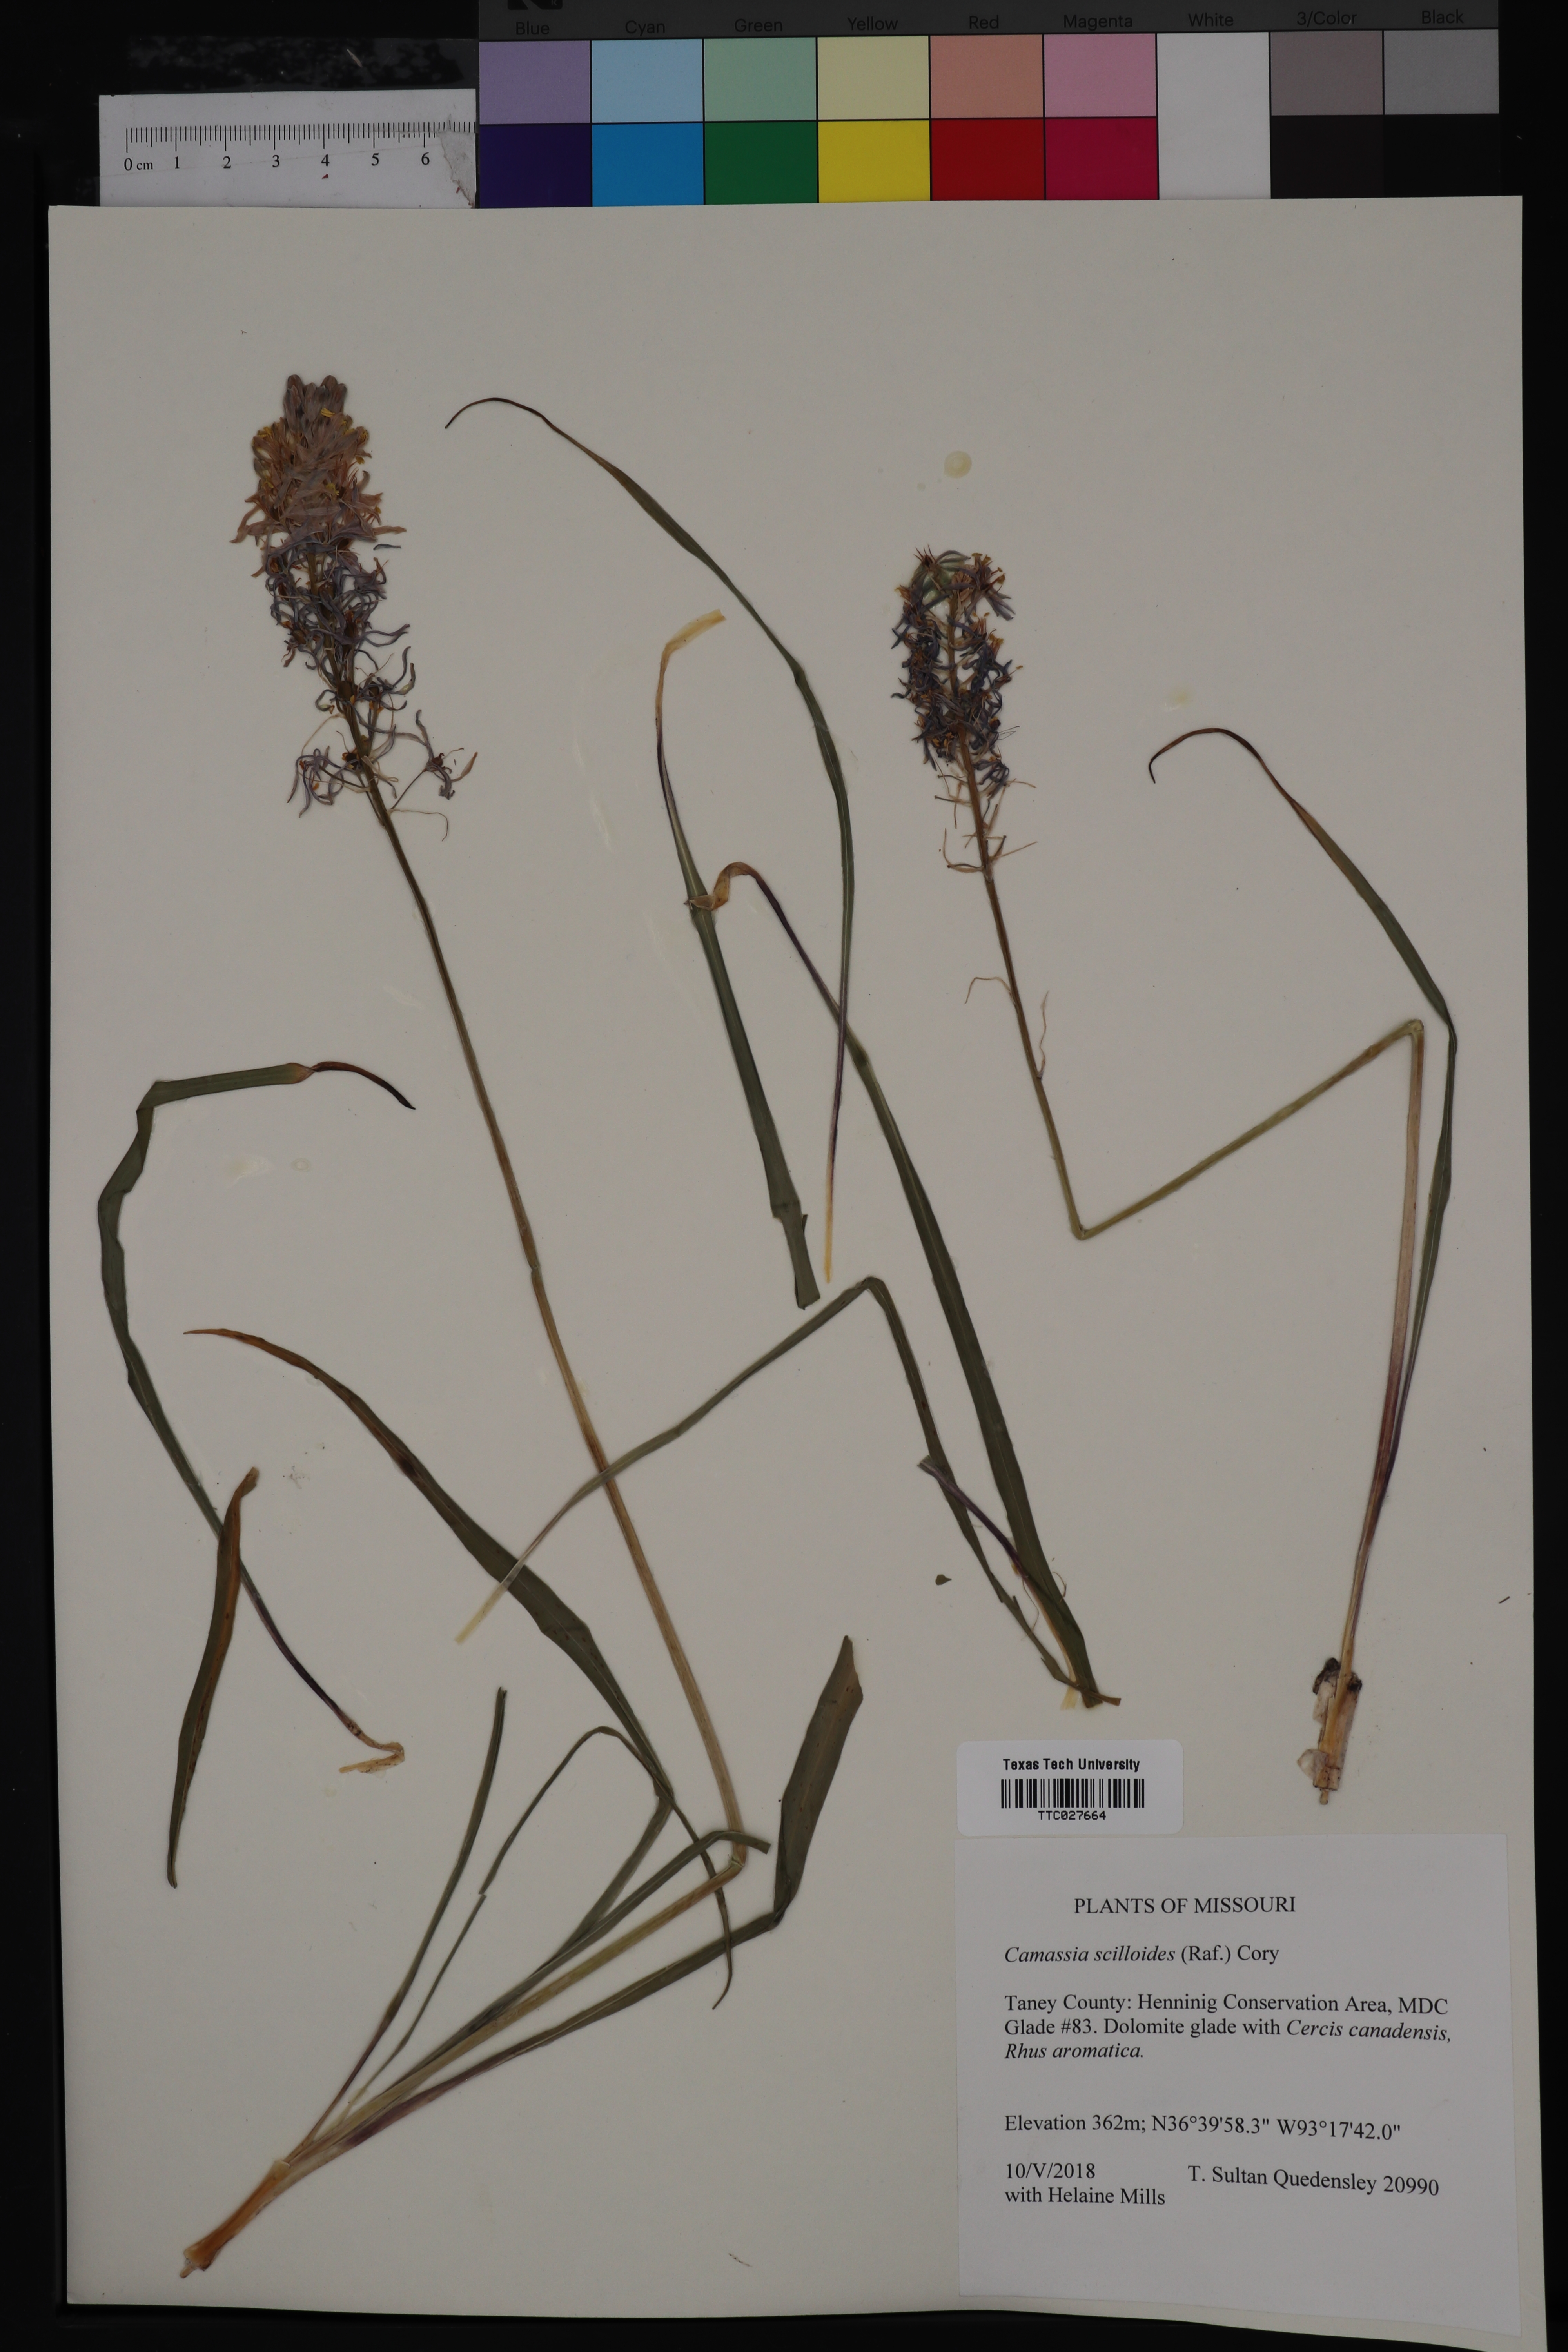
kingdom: Plantae
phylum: Tracheophyta
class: Liliopsida
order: Asparagales
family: Asparagaceae
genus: Camassia
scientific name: Camassia scilloides
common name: Wild hyacinth
